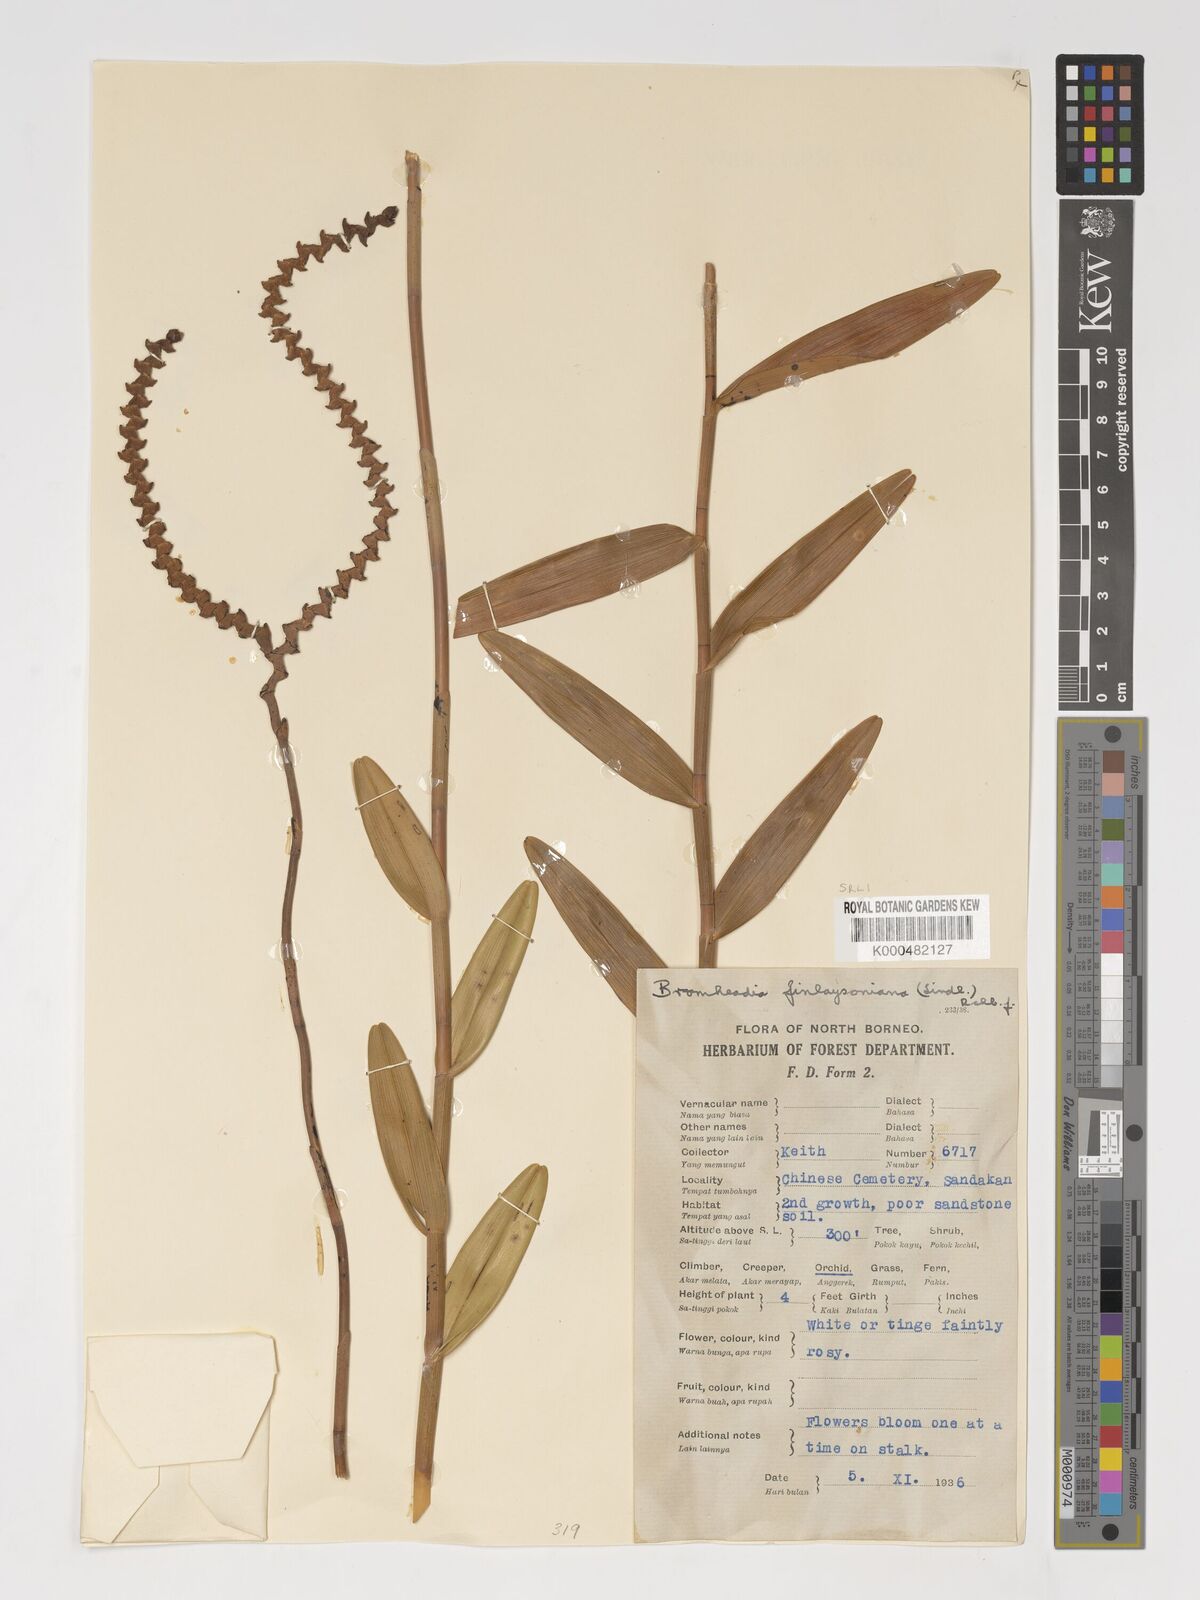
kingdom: Plantae
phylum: Tracheophyta
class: Liliopsida
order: Asparagales
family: Orchidaceae
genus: Bromheadia
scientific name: Bromheadia finlaysoniana
